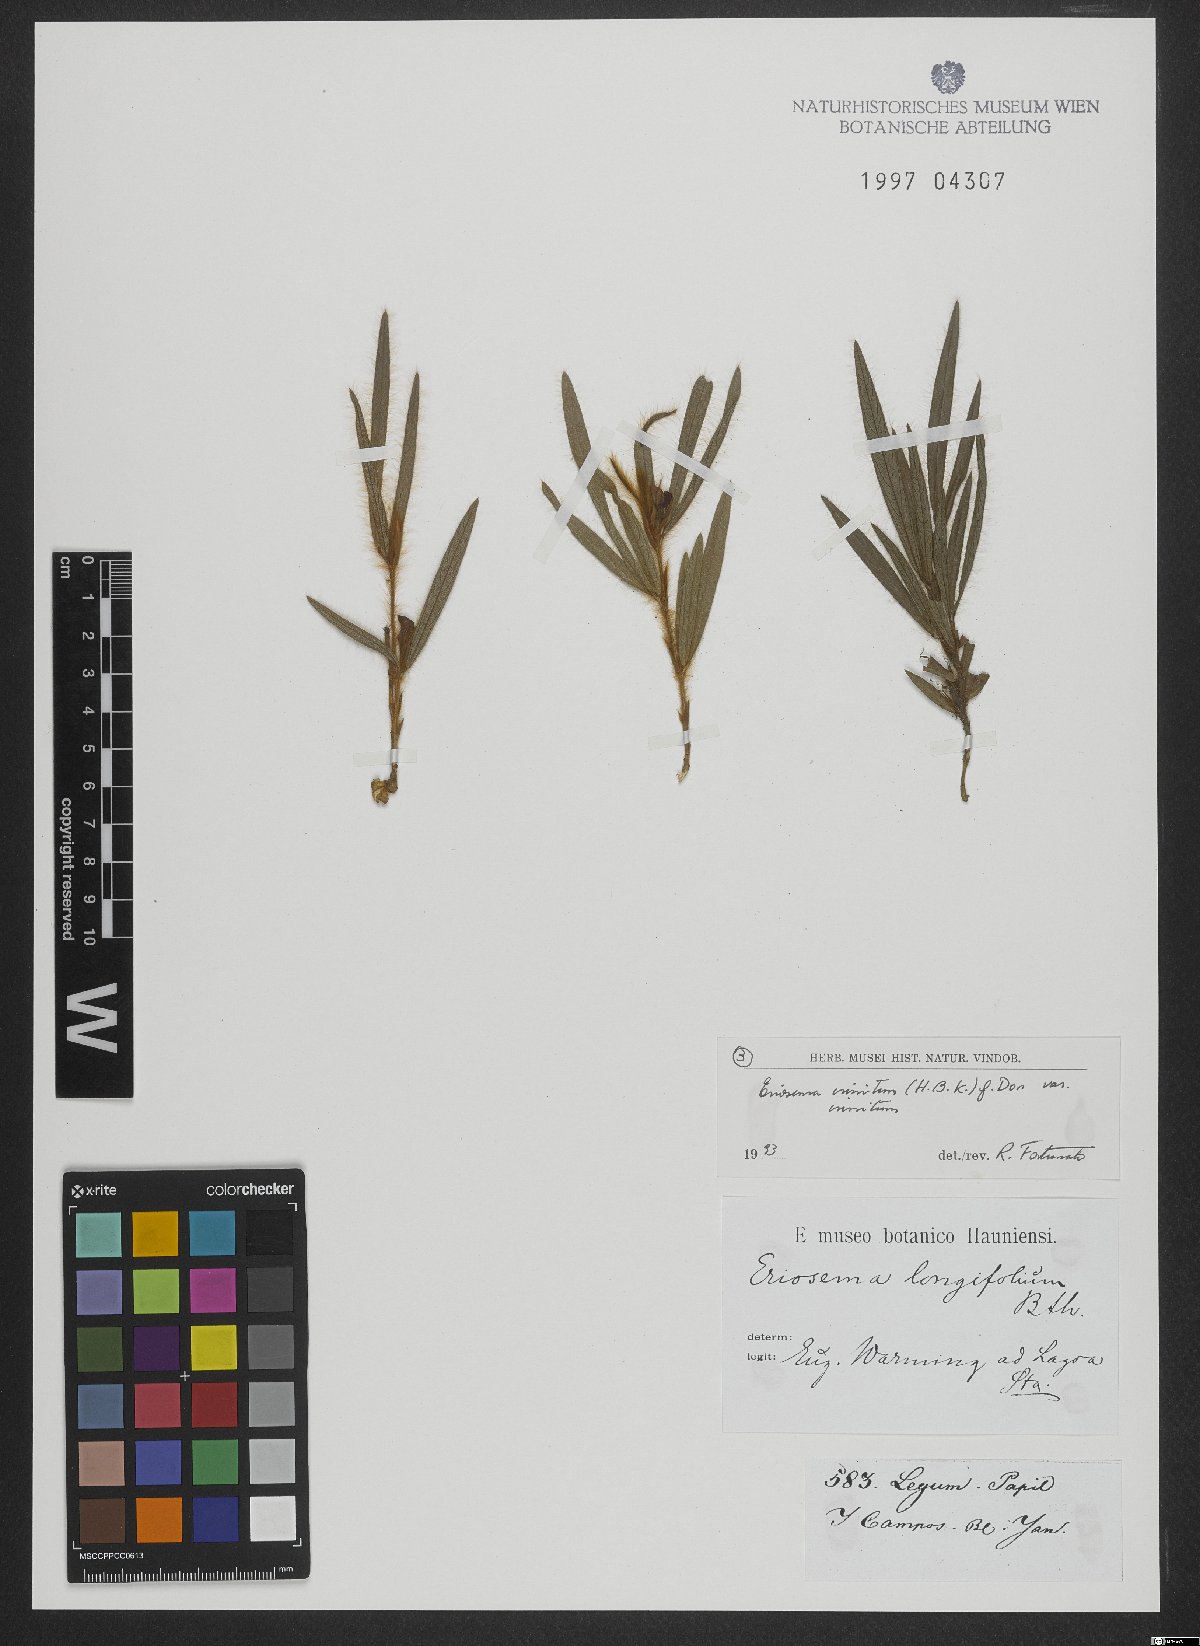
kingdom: Plantae
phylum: Tracheophyta
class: Magnoliopsida
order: Fabales
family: Fabaceae
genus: Eriosema
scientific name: Eriosema crinitum
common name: Sand pea
